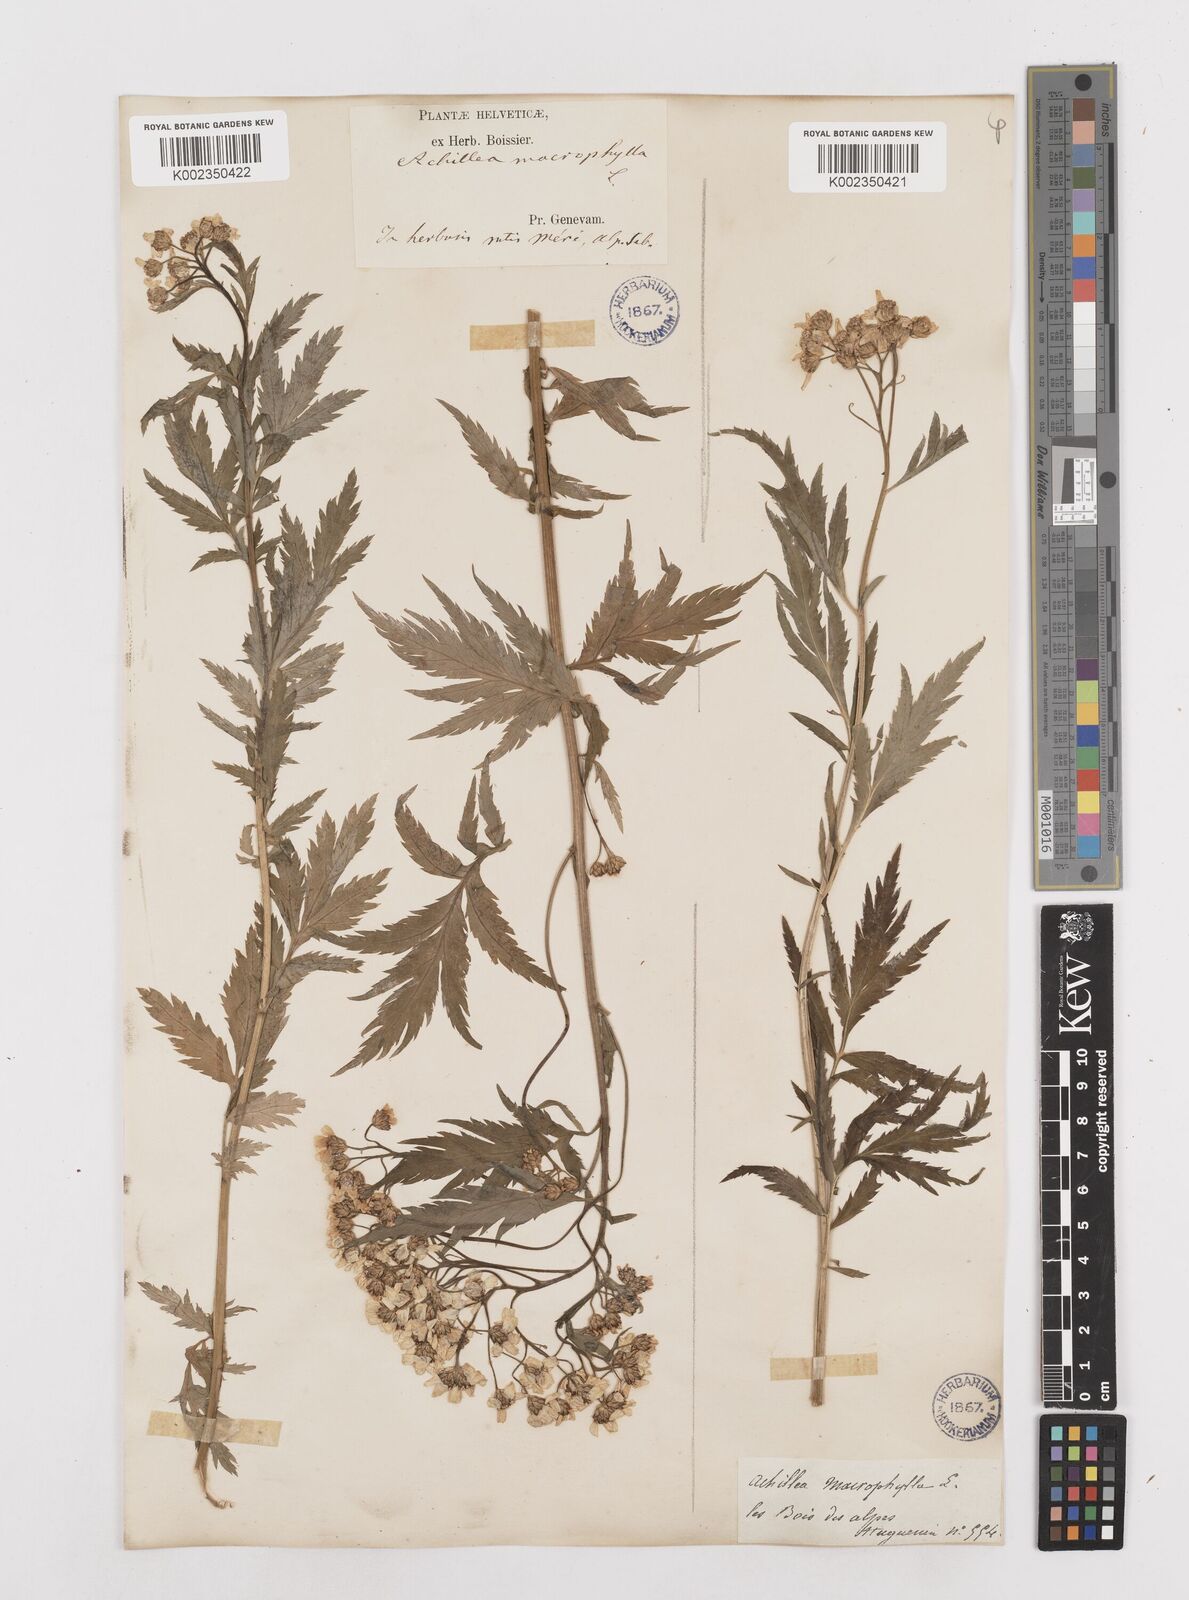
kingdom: Plantae
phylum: Tracheophyta
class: Magnoliopsida
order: Asterales
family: Asteraceae
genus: Achillea
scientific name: Achillea macrophylla
